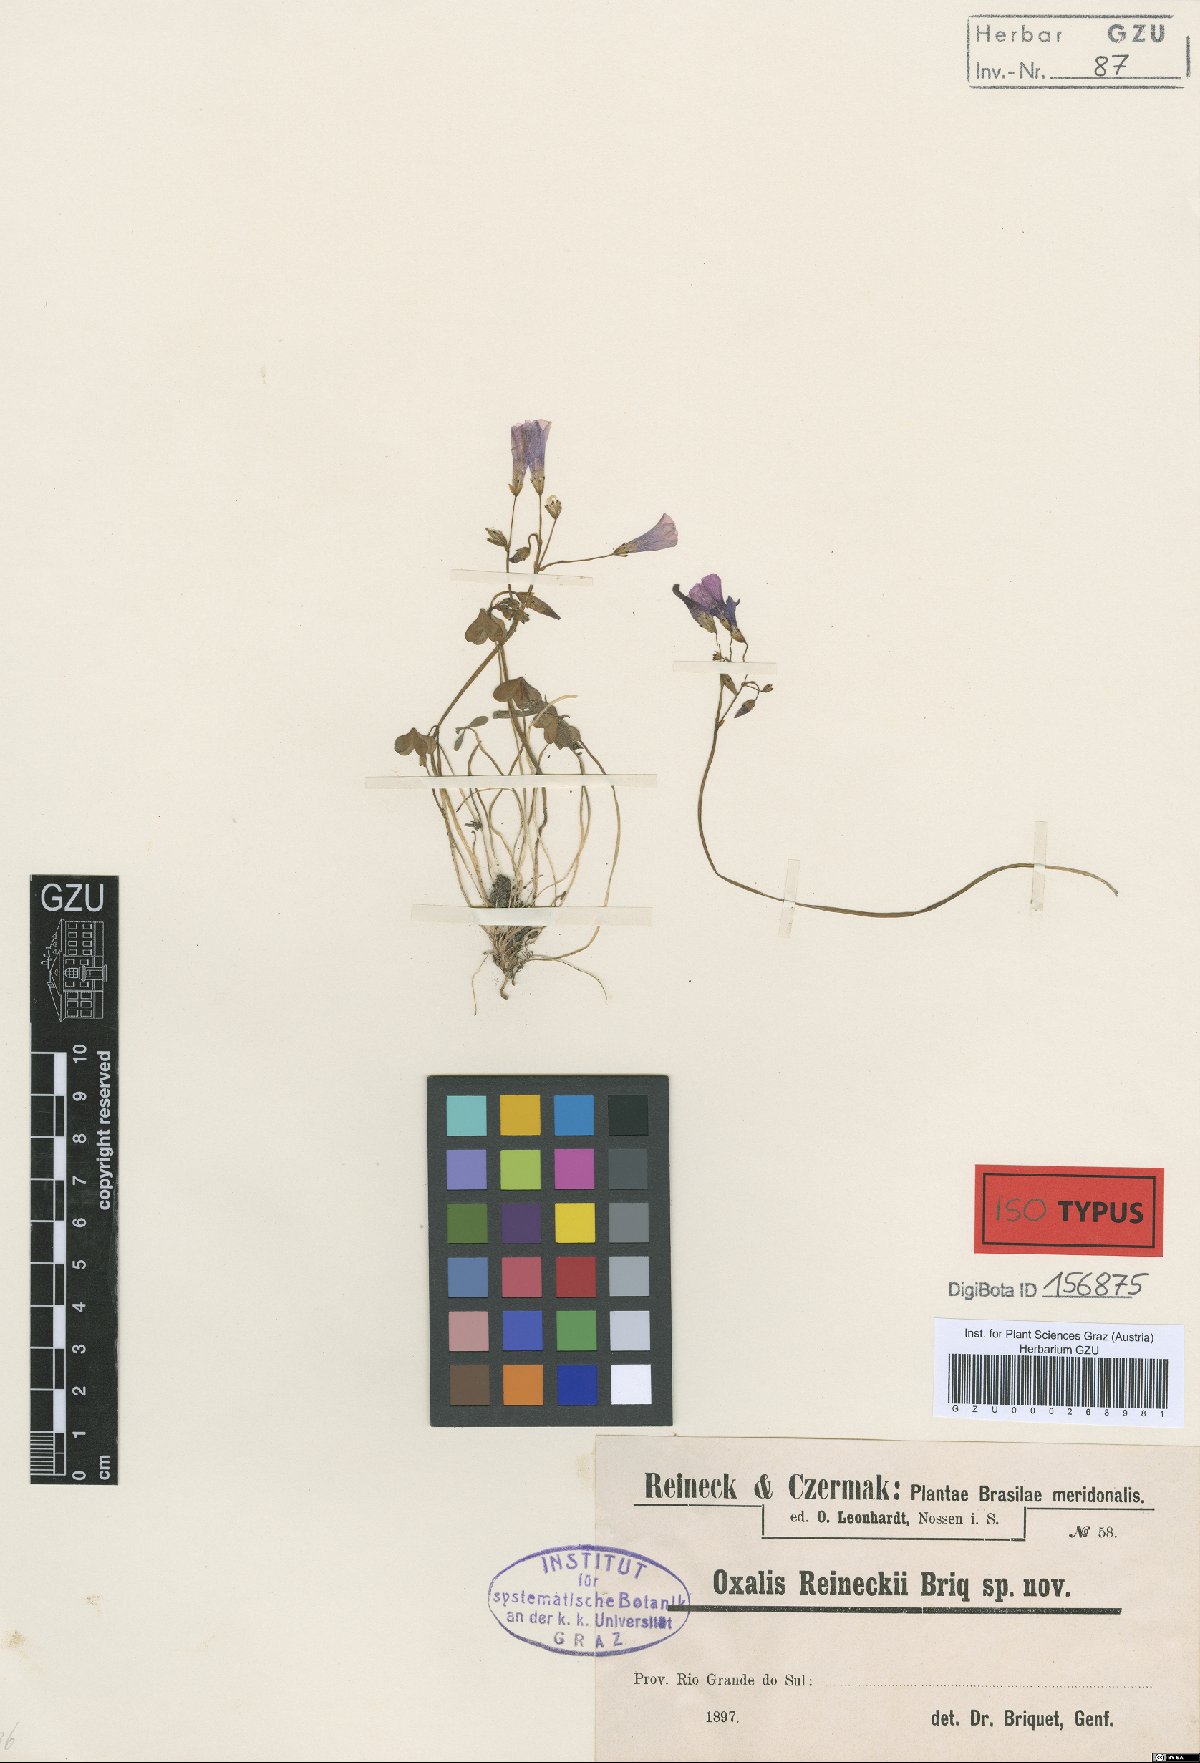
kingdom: Plantae
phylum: Tracheophyta
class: Magnoliopsida
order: Oxalidales
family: Oxalidaceae
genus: Oxalis
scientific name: Oxalis bipartita
